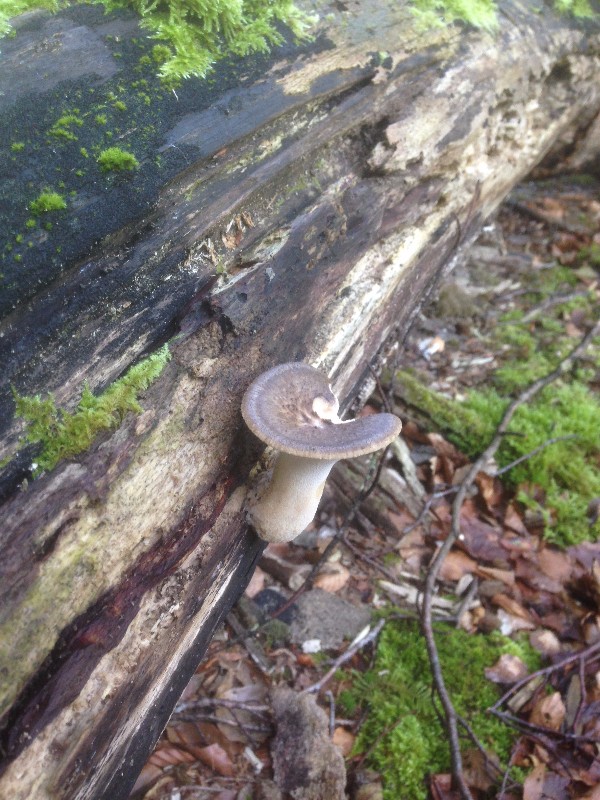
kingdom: Fungi
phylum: Basidiomycota
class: Agaricomycetes
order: Polyporales
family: Polyporaceae
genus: Polyporus
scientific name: Polyporus tuberaster
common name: knoldet stilkporesvamp
